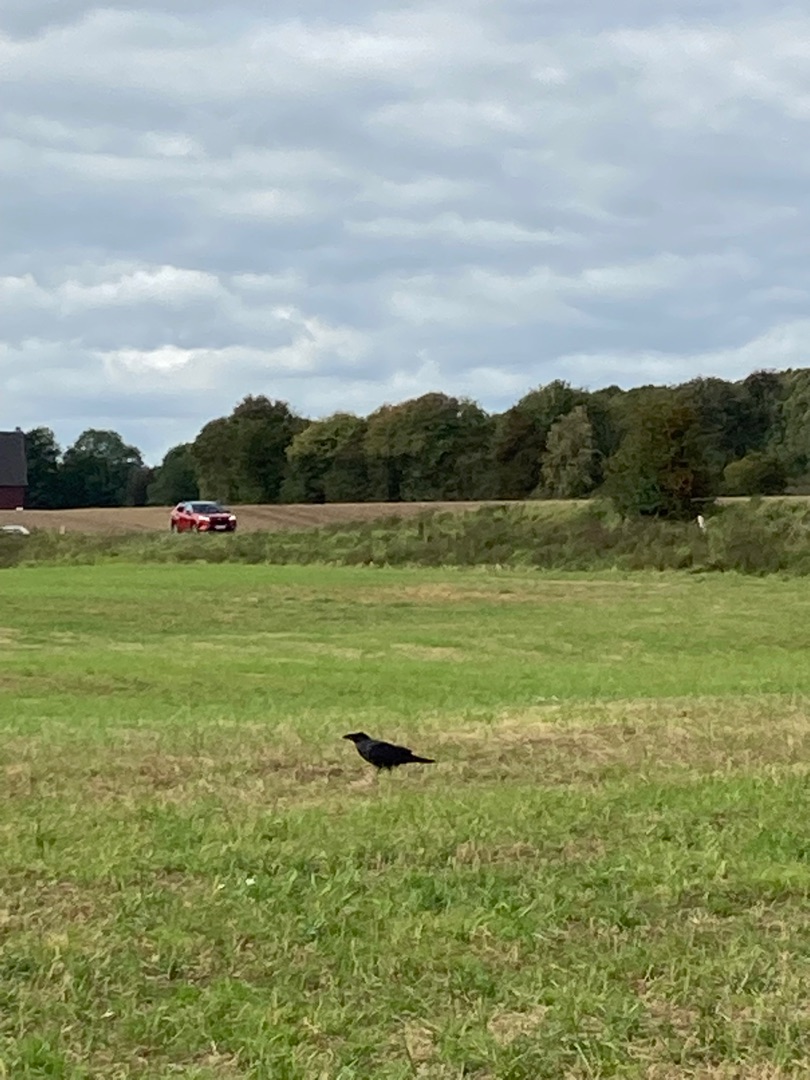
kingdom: Animalia
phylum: Chordata
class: Aves
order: Passeriformes
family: Corvidae
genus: Corvus
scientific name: Corvus corax
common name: Ravn
